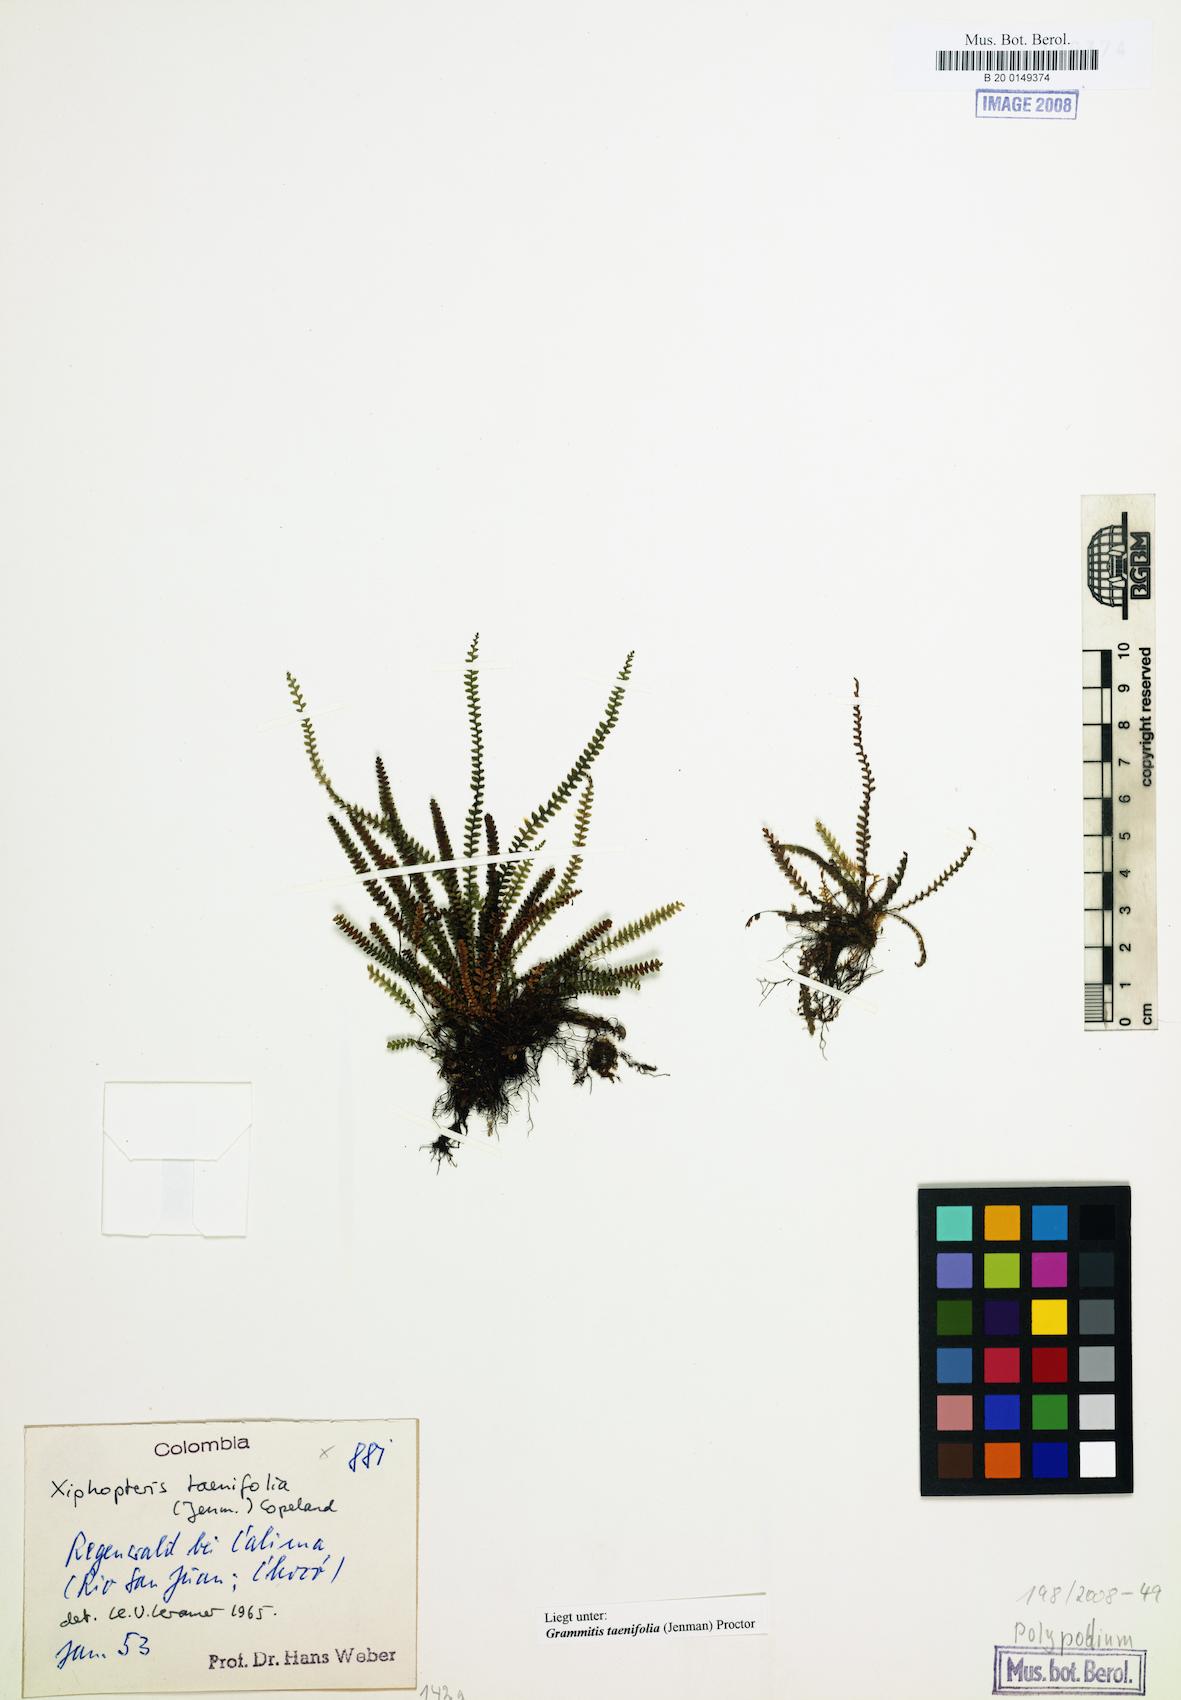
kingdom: Plantae
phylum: Tracheophyta
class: Polypodiopsida
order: Polypodiales
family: Polypodiaceae
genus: Moranopteris
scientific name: Moranopteris nana
